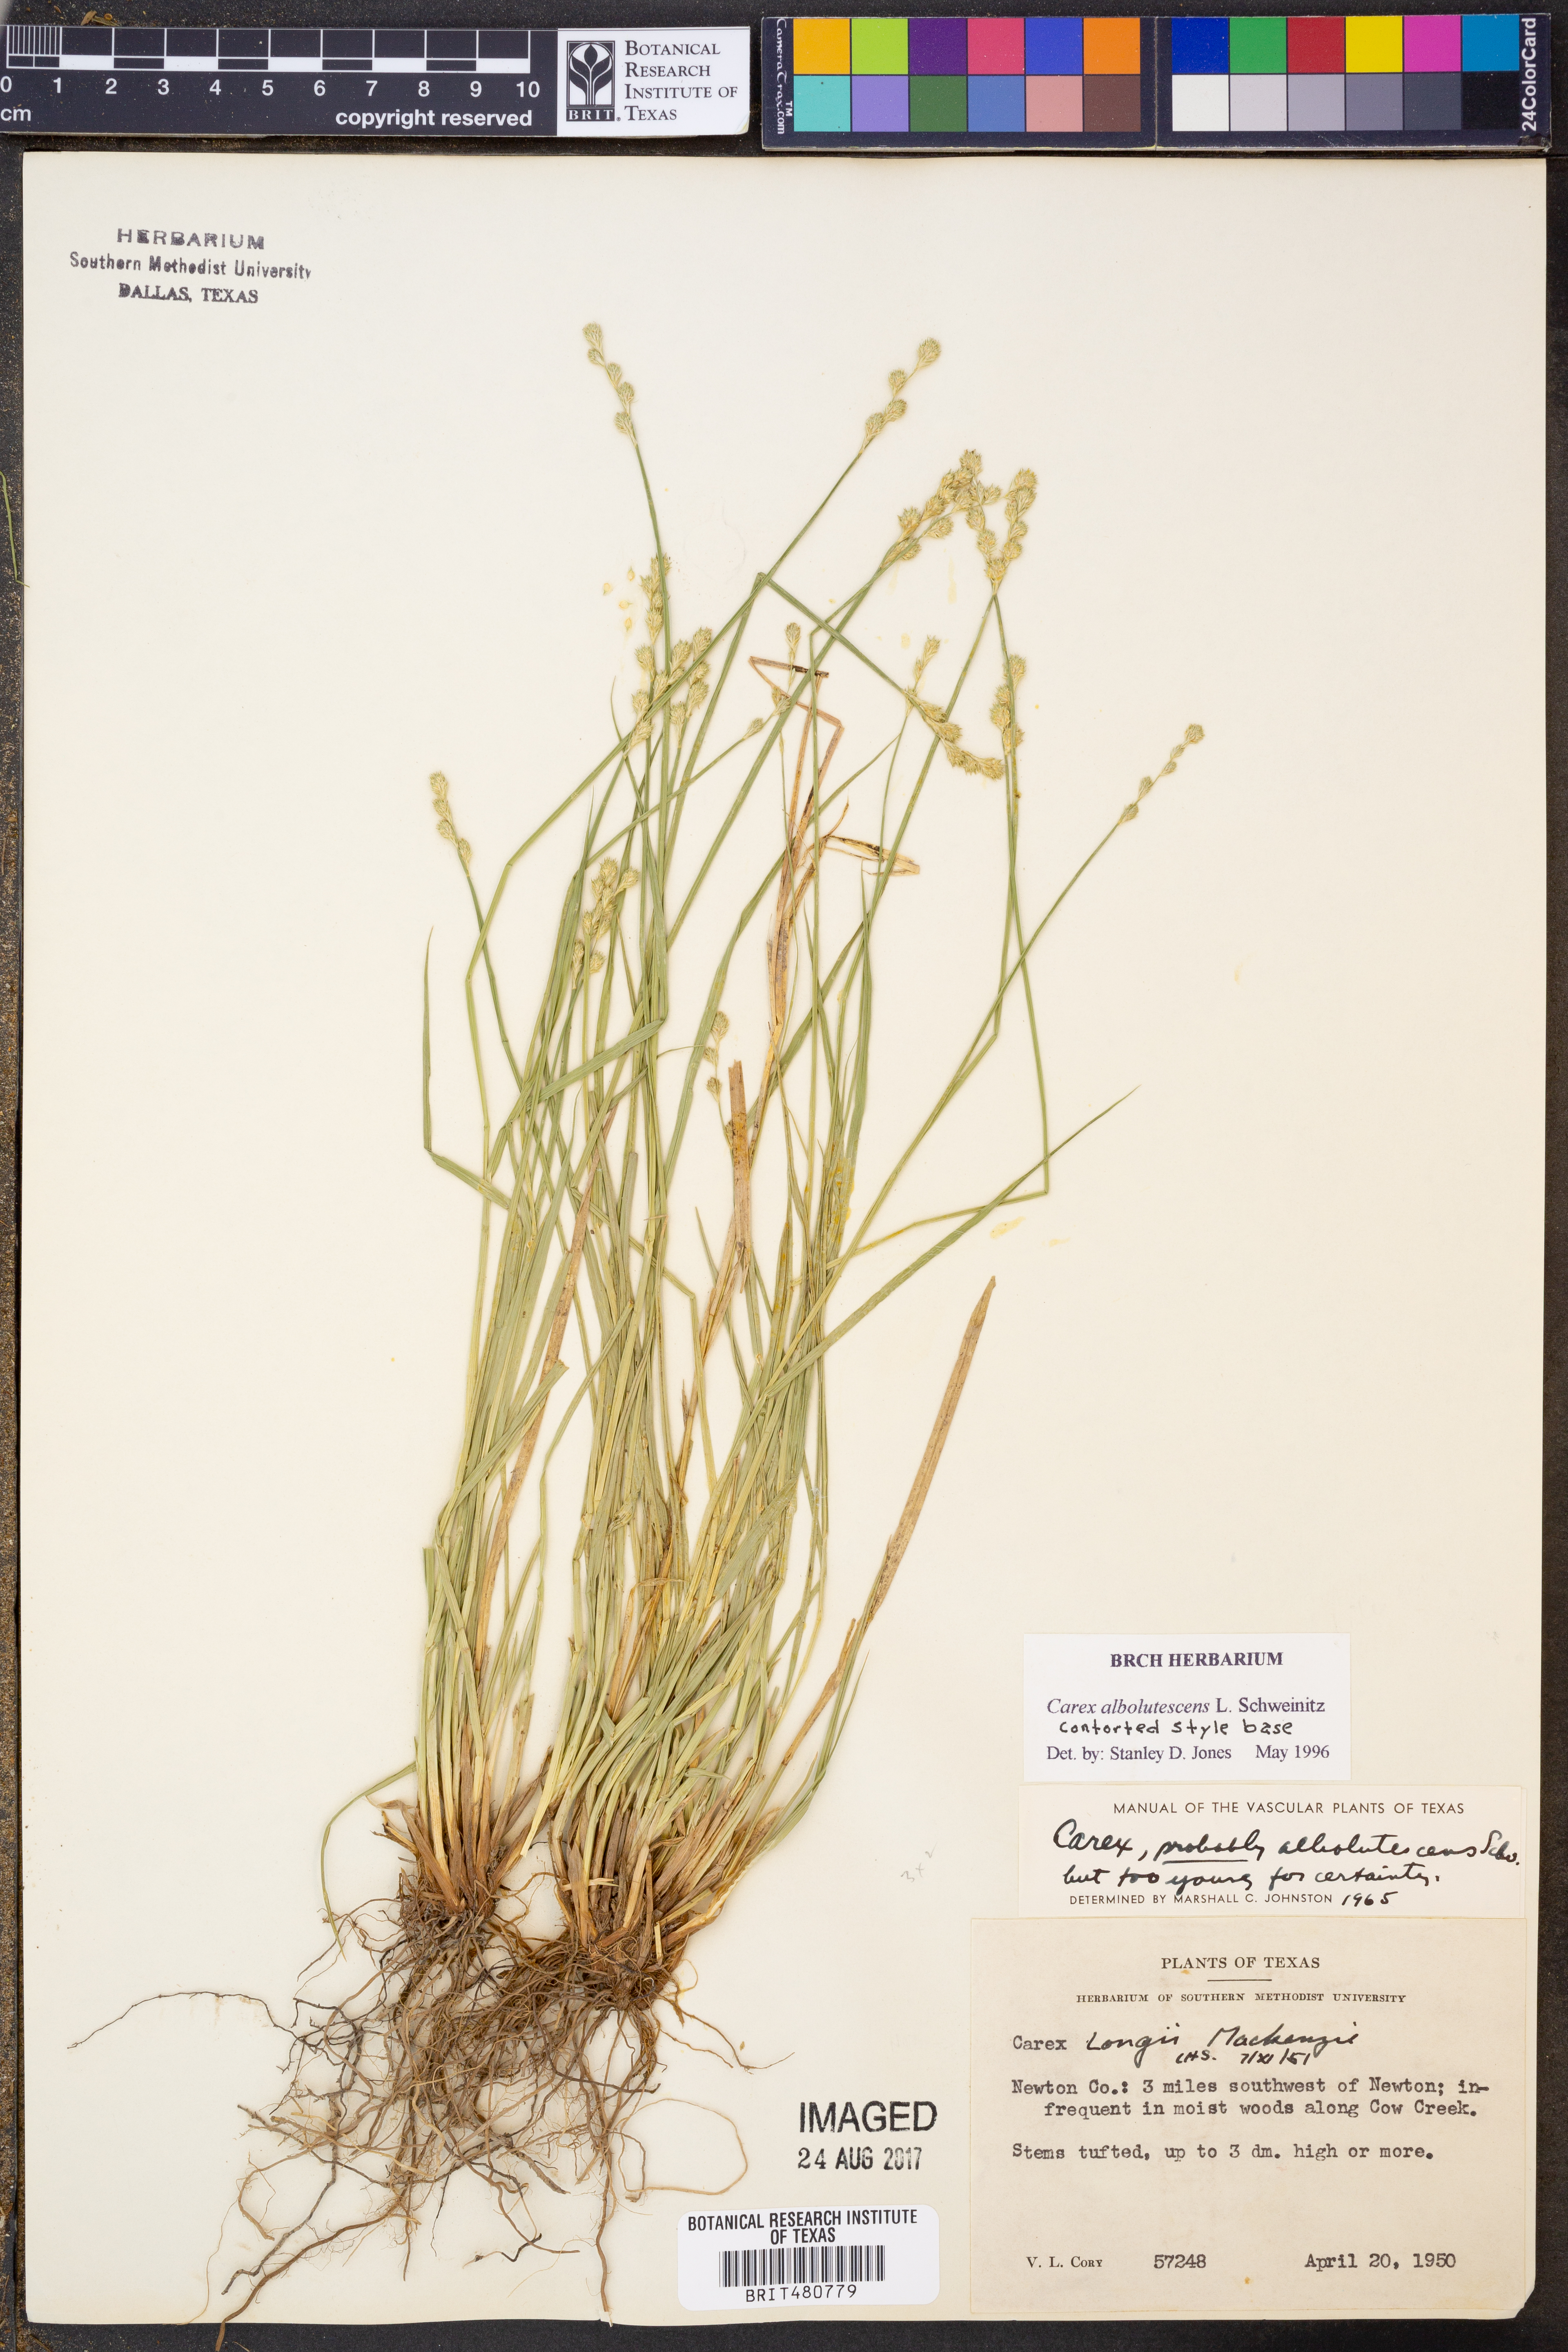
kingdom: Plantae
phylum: Tracheophyta
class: Liliopsida
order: Poales
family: Cyperaceae
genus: Carex
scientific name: Carex albolutescens
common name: Freenish white sedge
